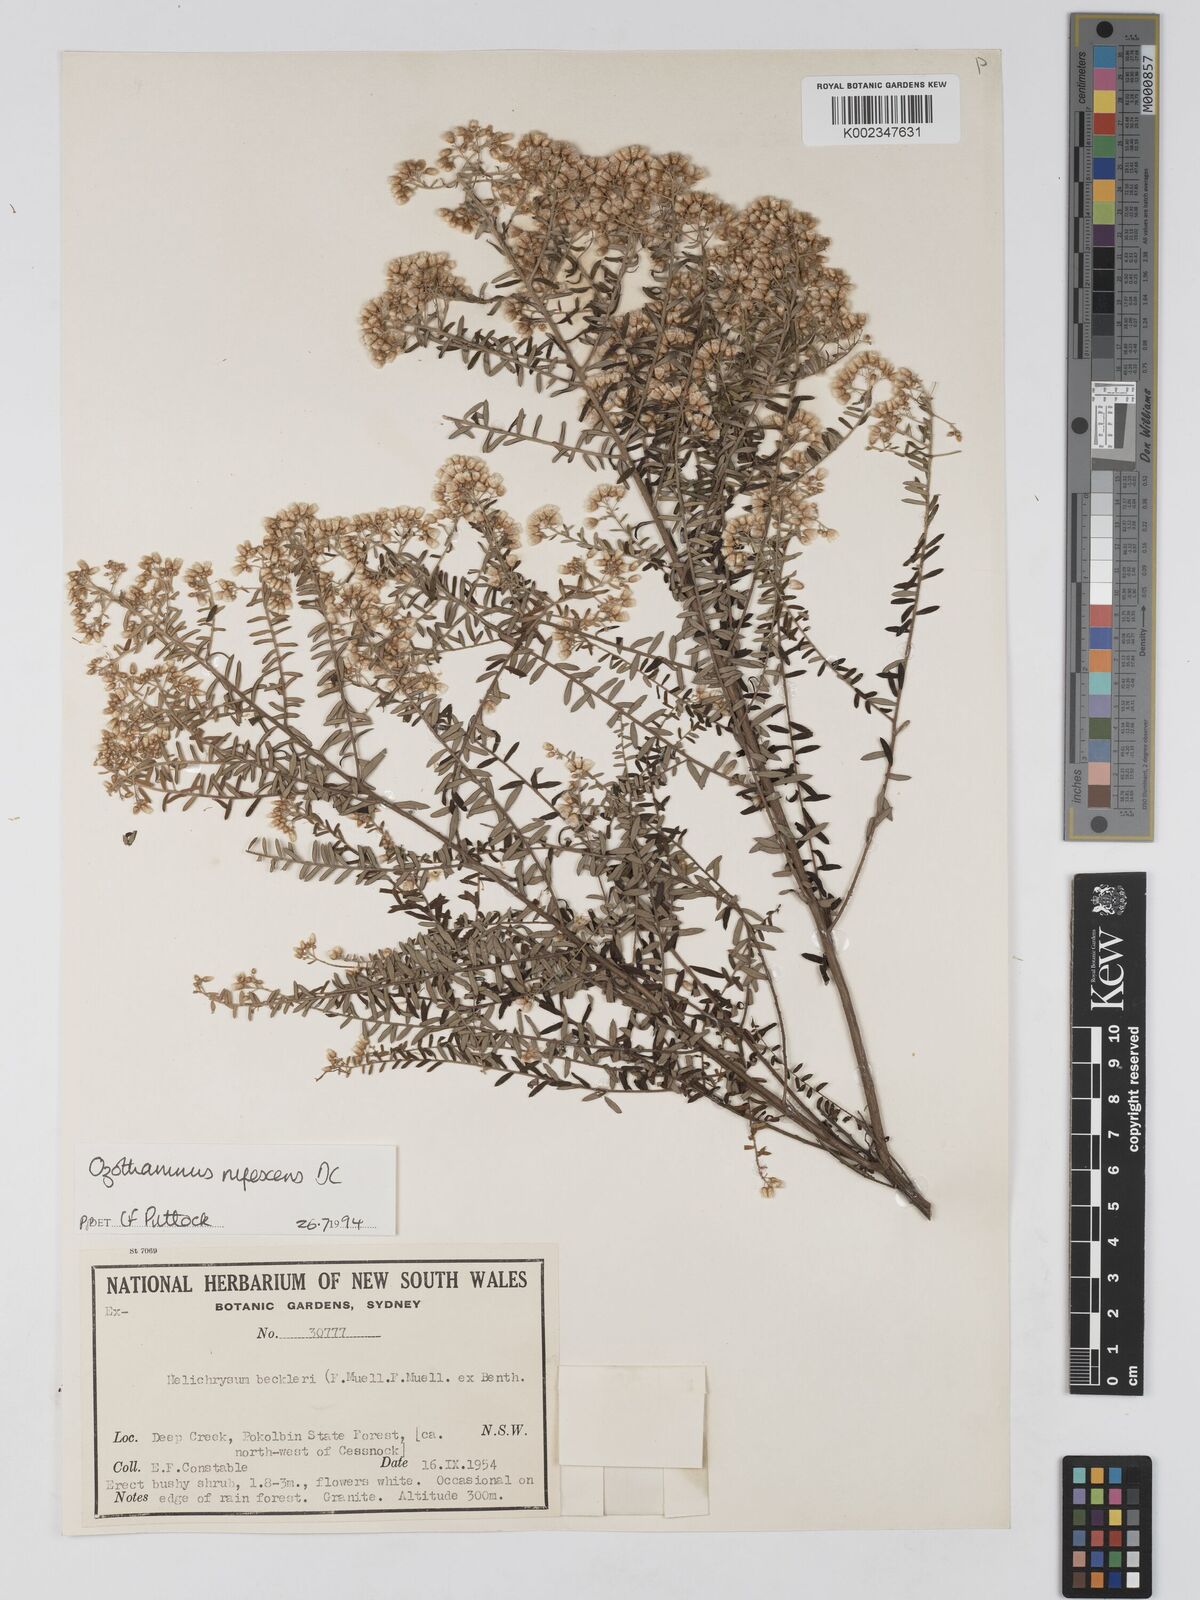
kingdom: Plantae
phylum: Tracheophyta
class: Magnoliopsida
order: Asterales
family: Asteraceae
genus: Ozothamnus
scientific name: Ozothamnus rufescens
